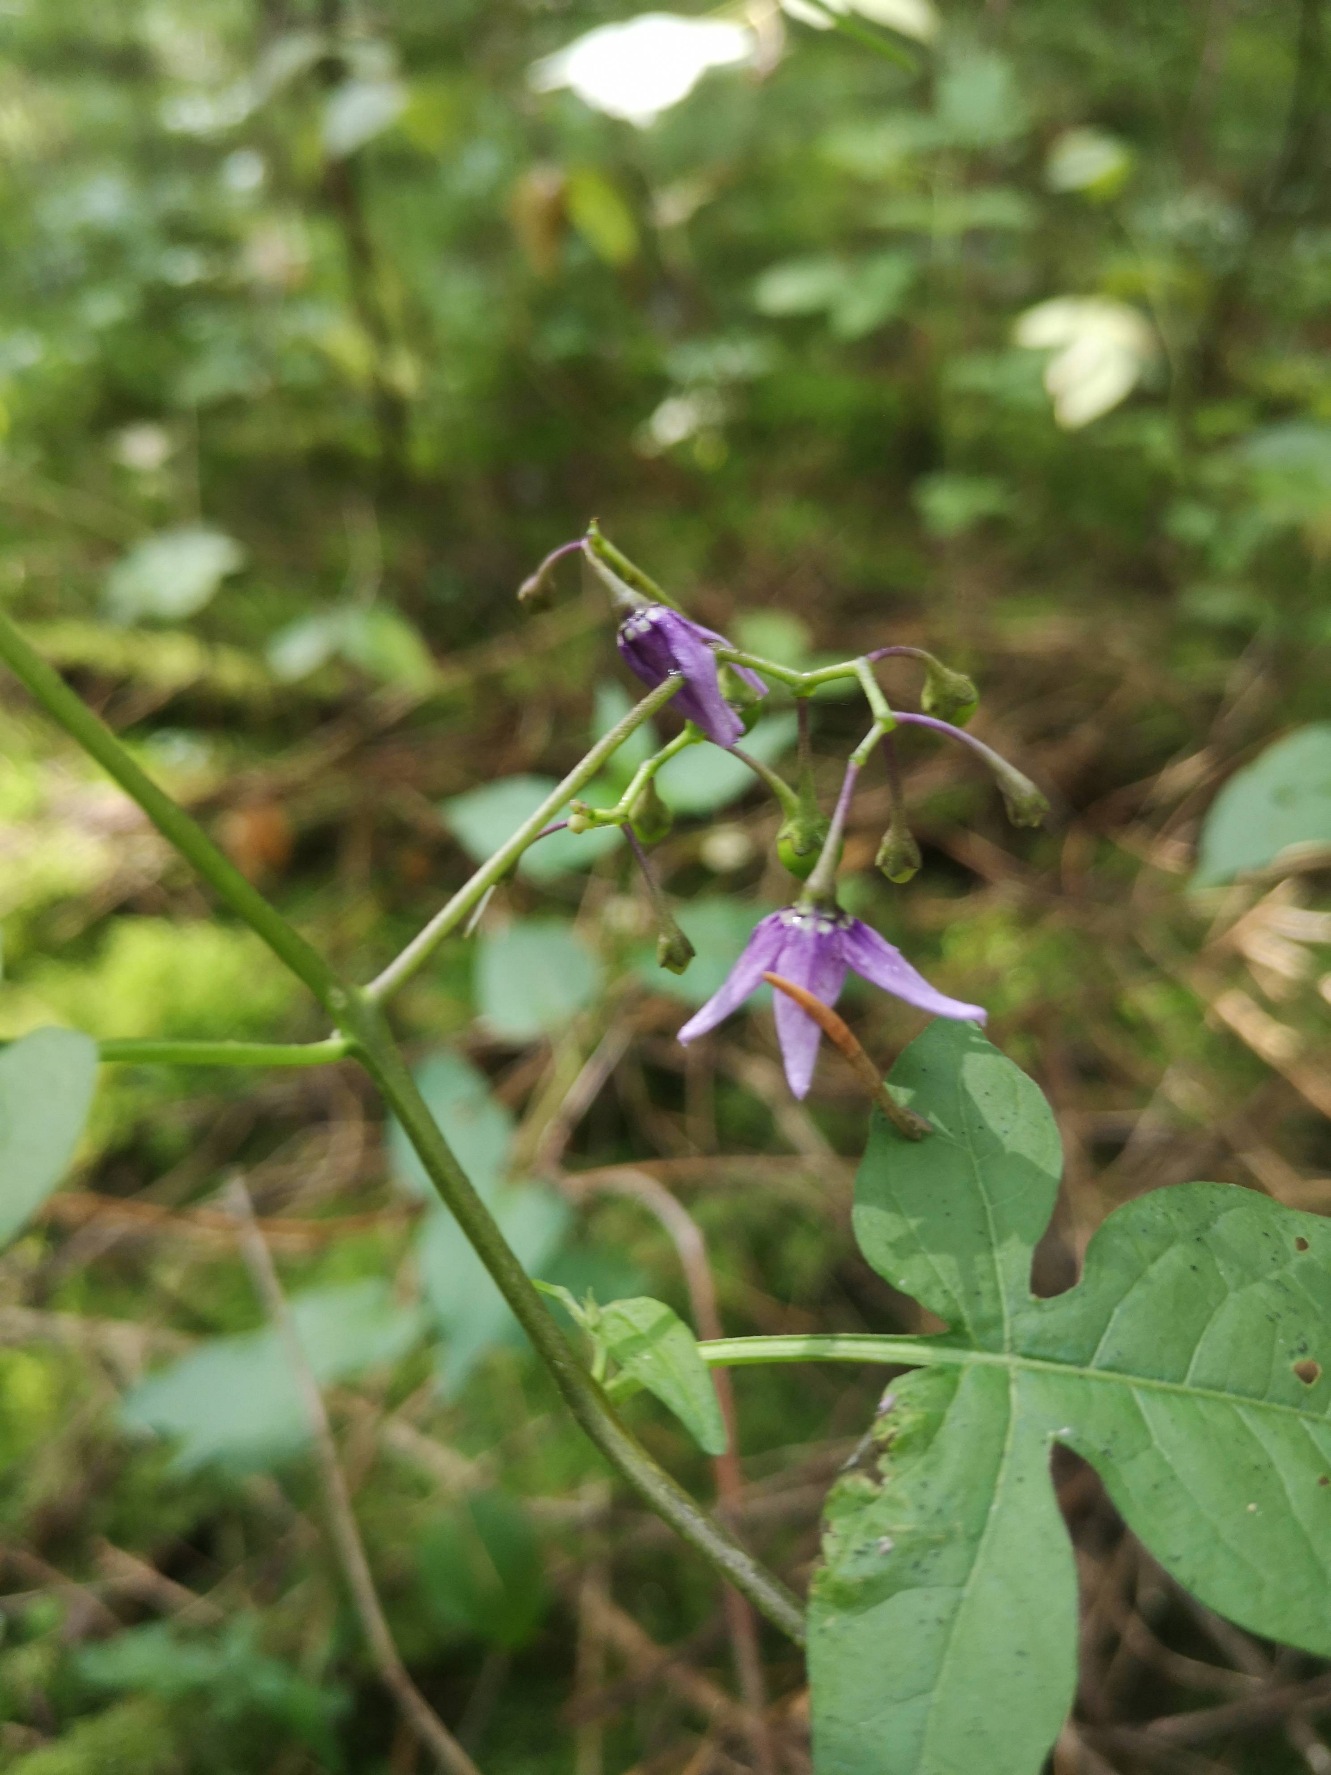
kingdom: Plantae
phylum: Tracheophyta
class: Magnoliopsida
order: Solanales
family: Solanaceae
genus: Solanum
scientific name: Solanum dulcamara
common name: Bittersød natskygge
